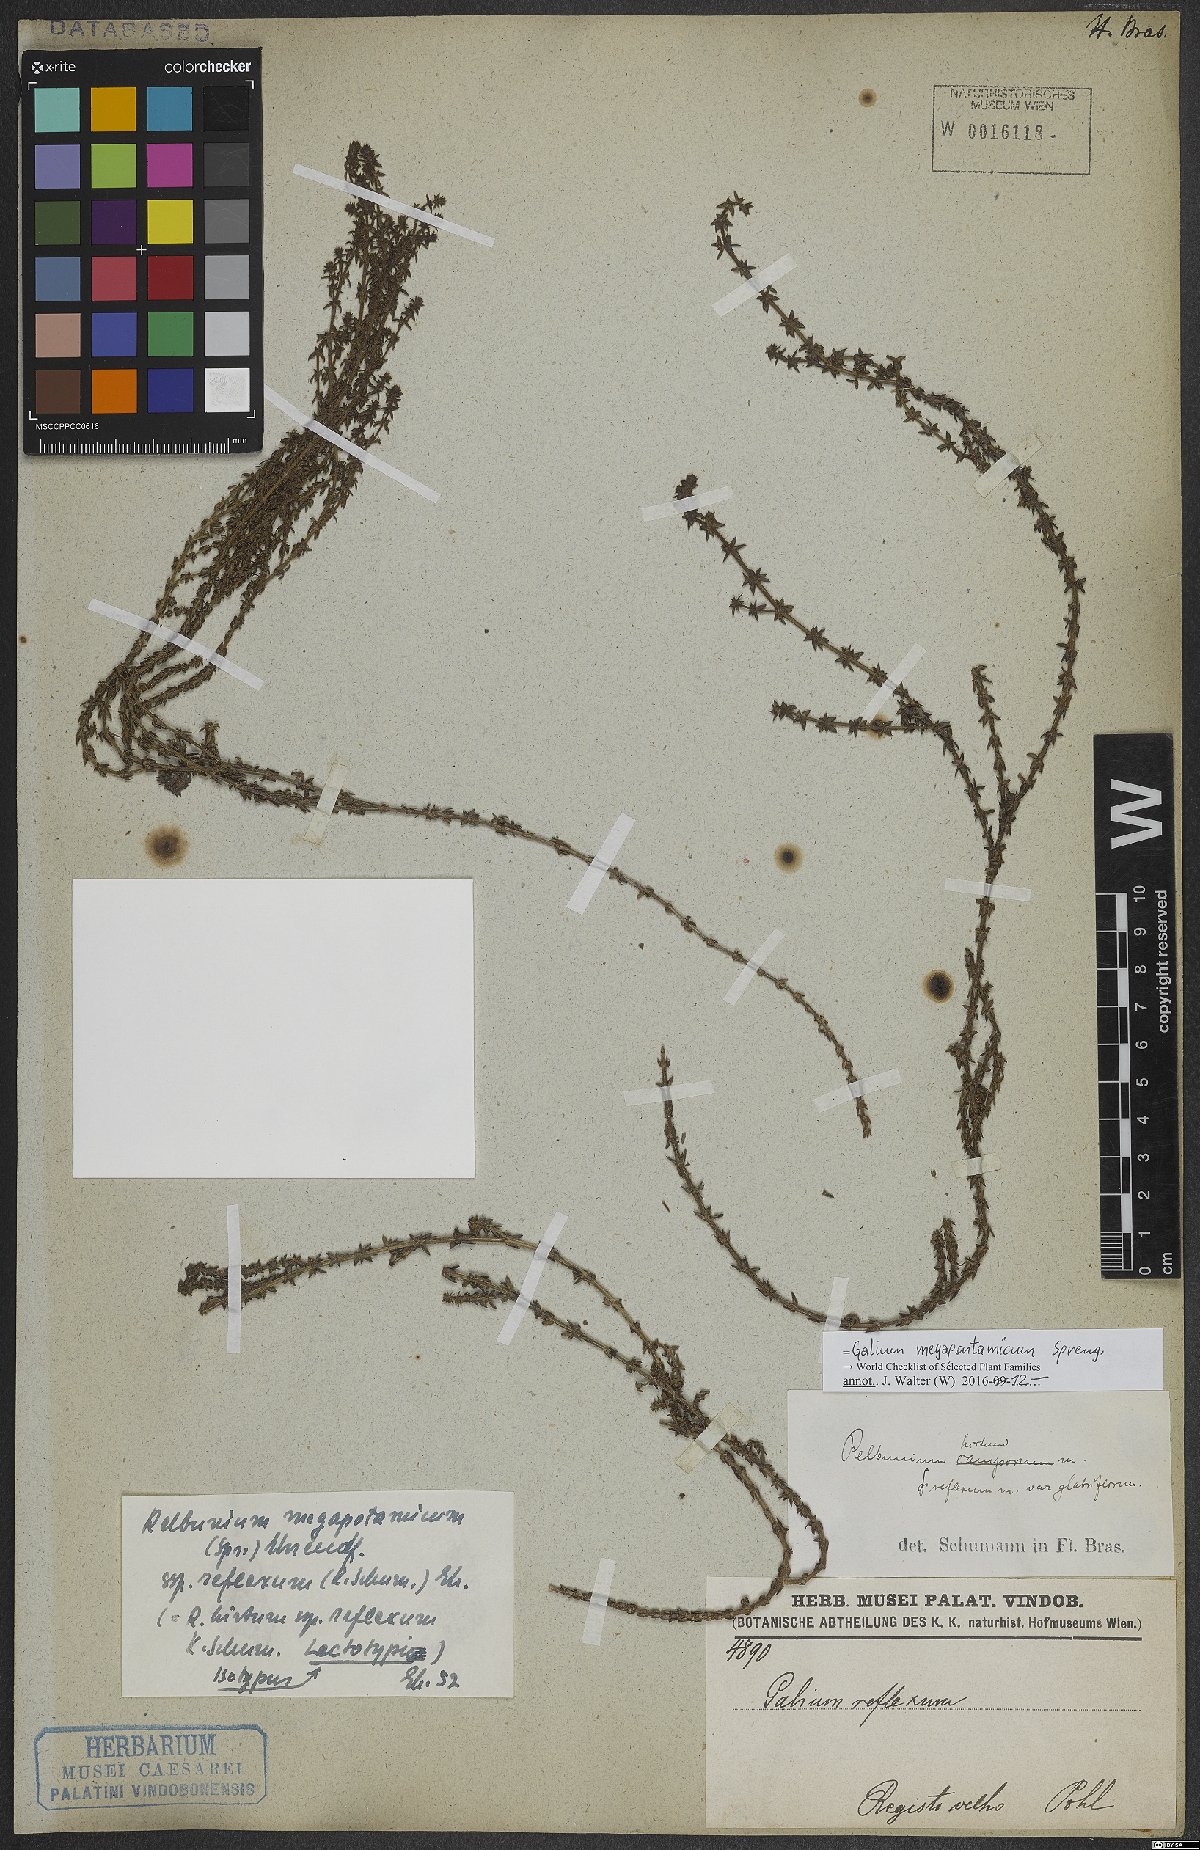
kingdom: Plantae
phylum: Tracheophyta
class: Magnoliopsida
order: Gentianales
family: Rubiaceae
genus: Galium
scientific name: Galium megapotamicum
